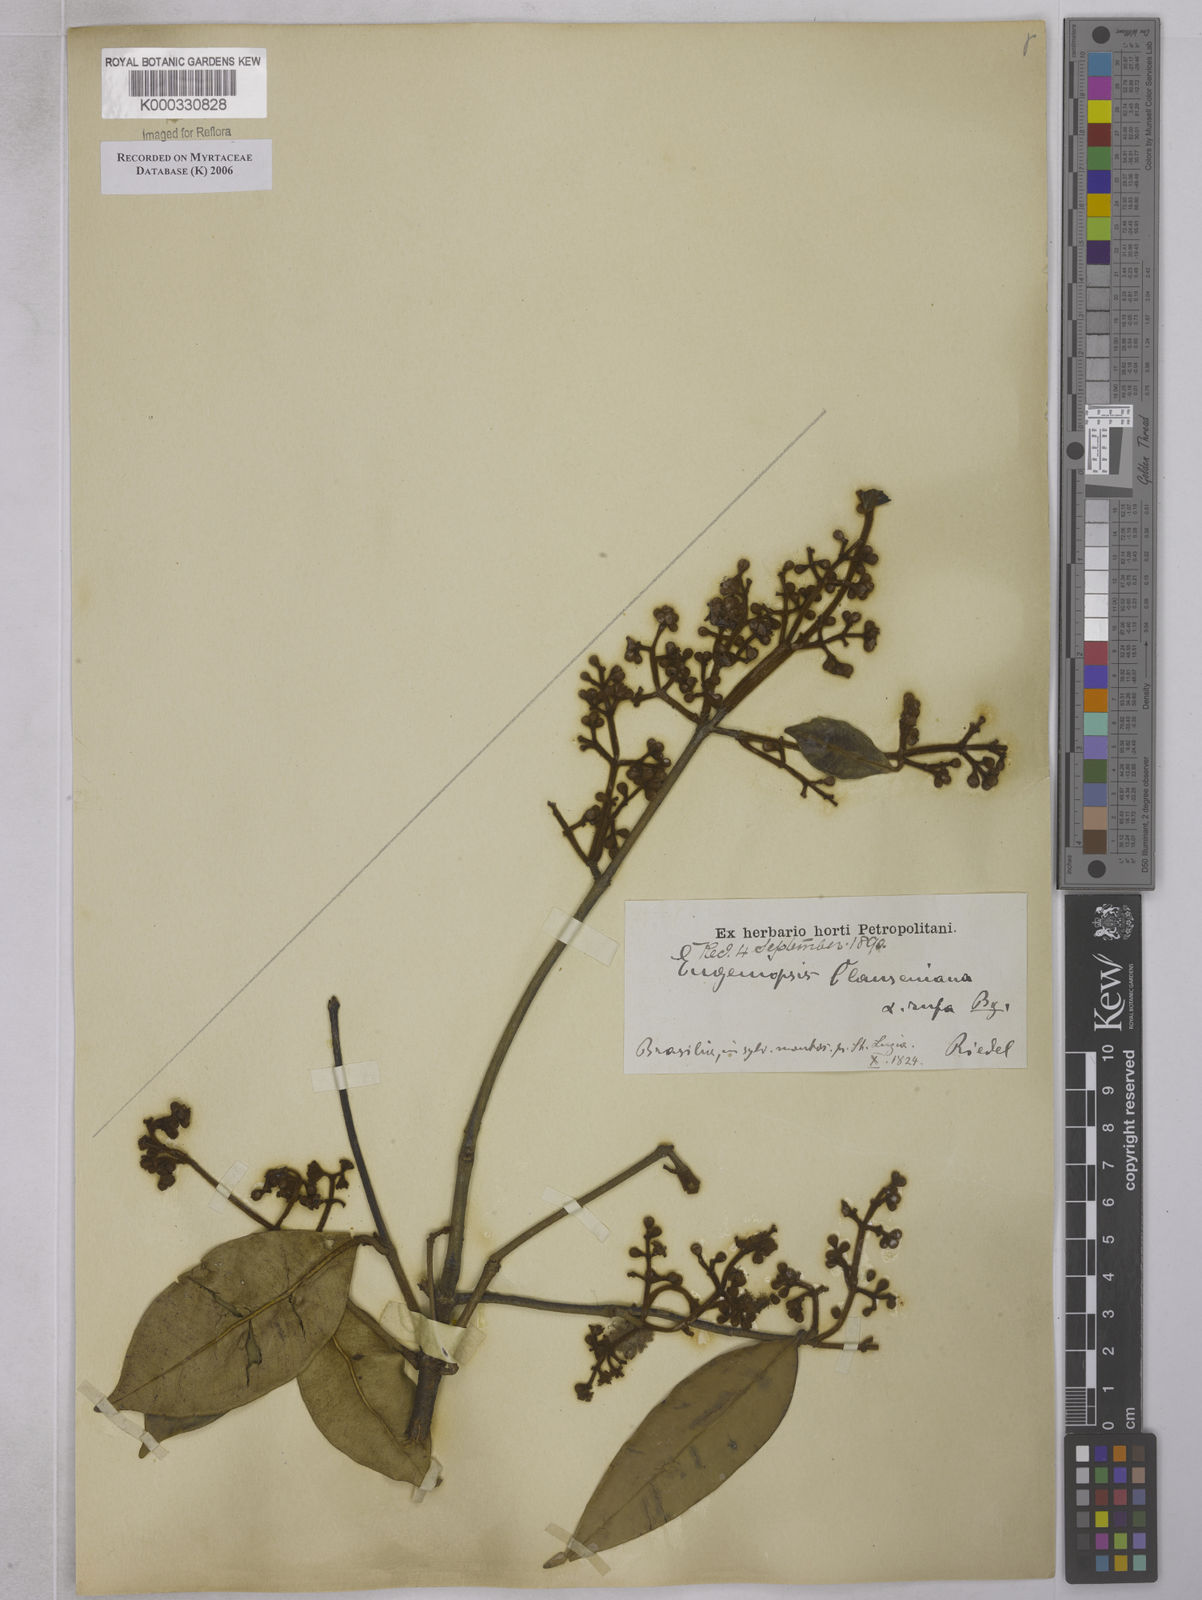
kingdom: Plantae
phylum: Tracheophyta
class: Magnoliopsida
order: Myrtales
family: Myrtaceae
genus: Marlierea
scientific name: Marlierea clausseniana
